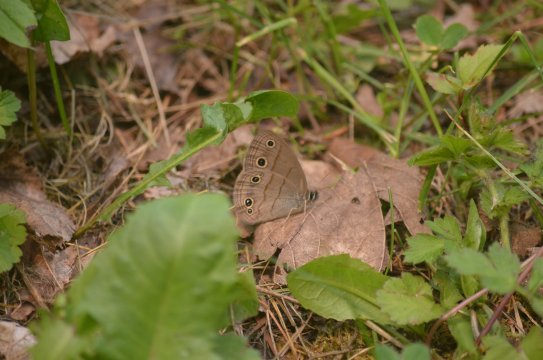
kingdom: Animalia
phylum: Arthropoda
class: Insecta
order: Lepidoptera
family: Nymphalidae
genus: Euptychia
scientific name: Euptychia cymela
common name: Little Wood Satyr
